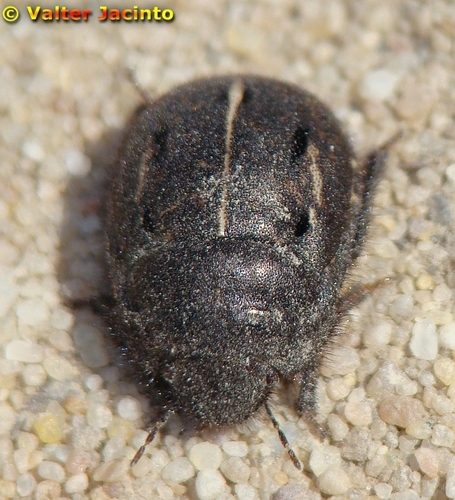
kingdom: Animalia
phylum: Arthropoda
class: Insecta
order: Hemiptera
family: Scutelleridae
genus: Odontoscelis
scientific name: Odontoscelis
